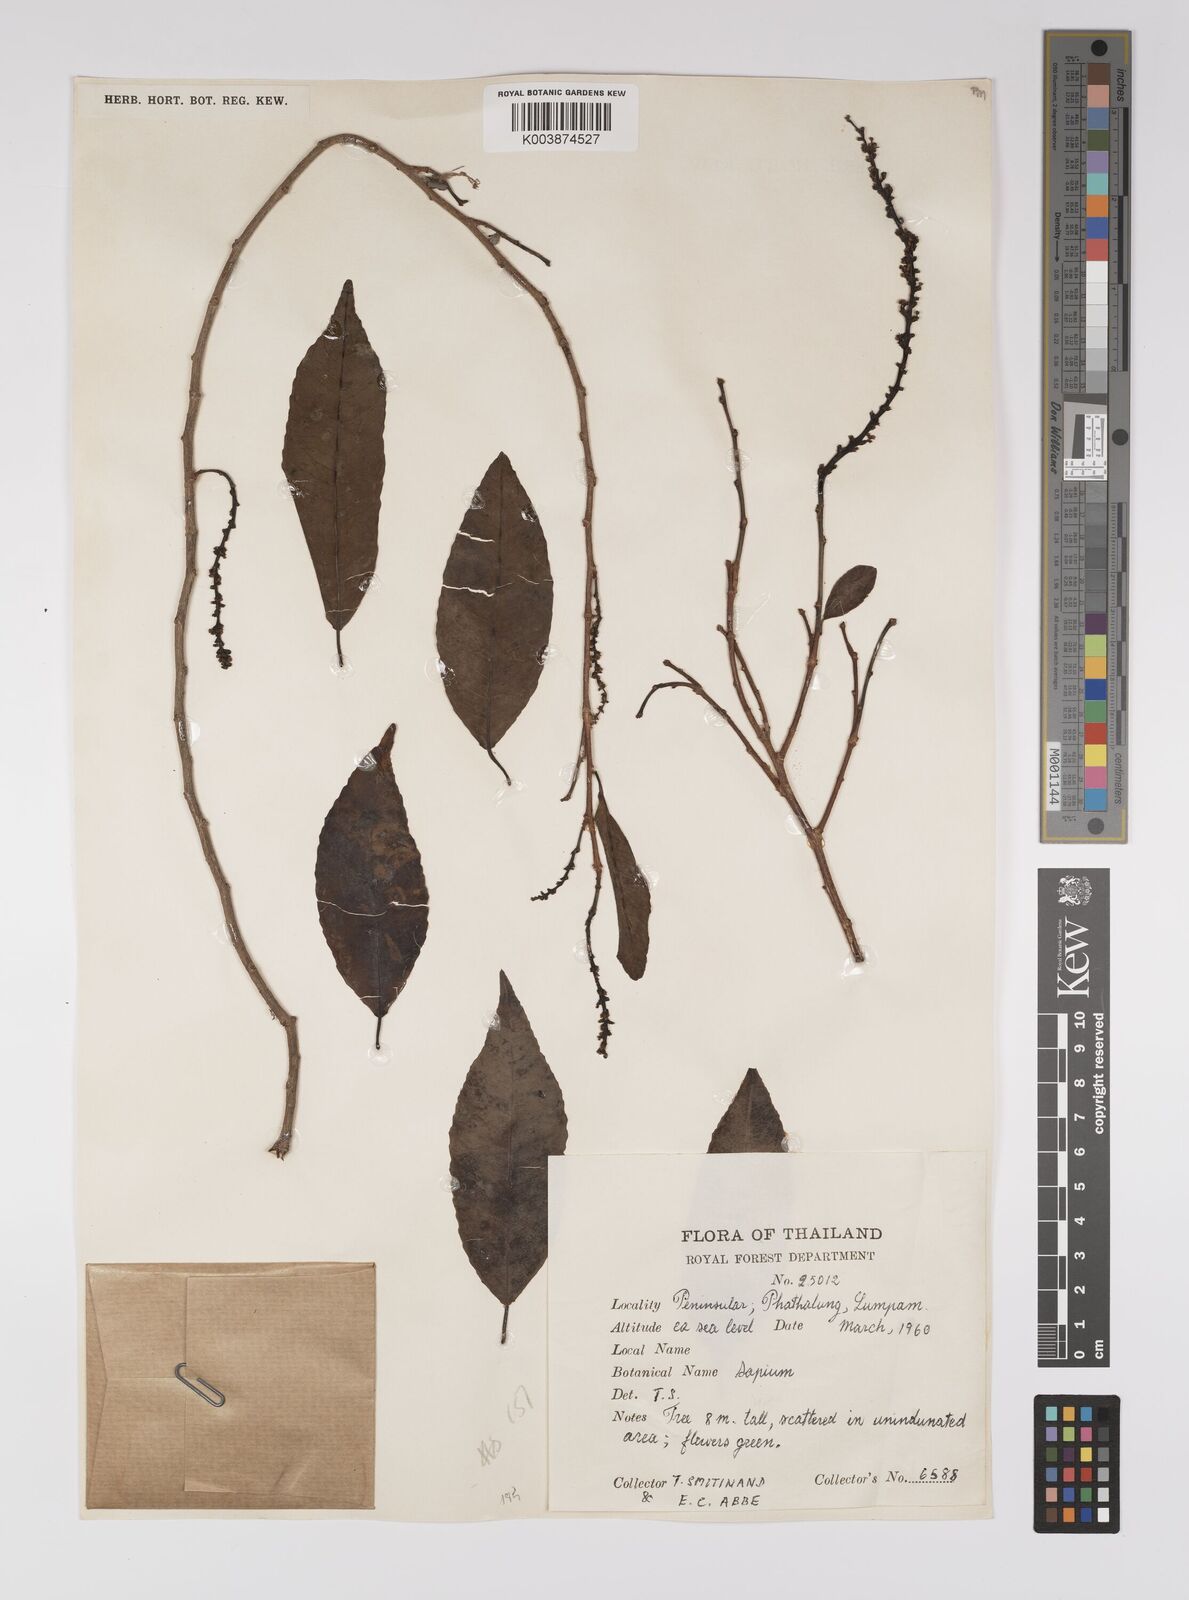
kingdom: Plantae
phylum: Tracheophyta
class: Magnoliopsida
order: Malpighiales
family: Euphorbiaceae
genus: Shirakiopsis
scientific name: Shirakiopsis indica
